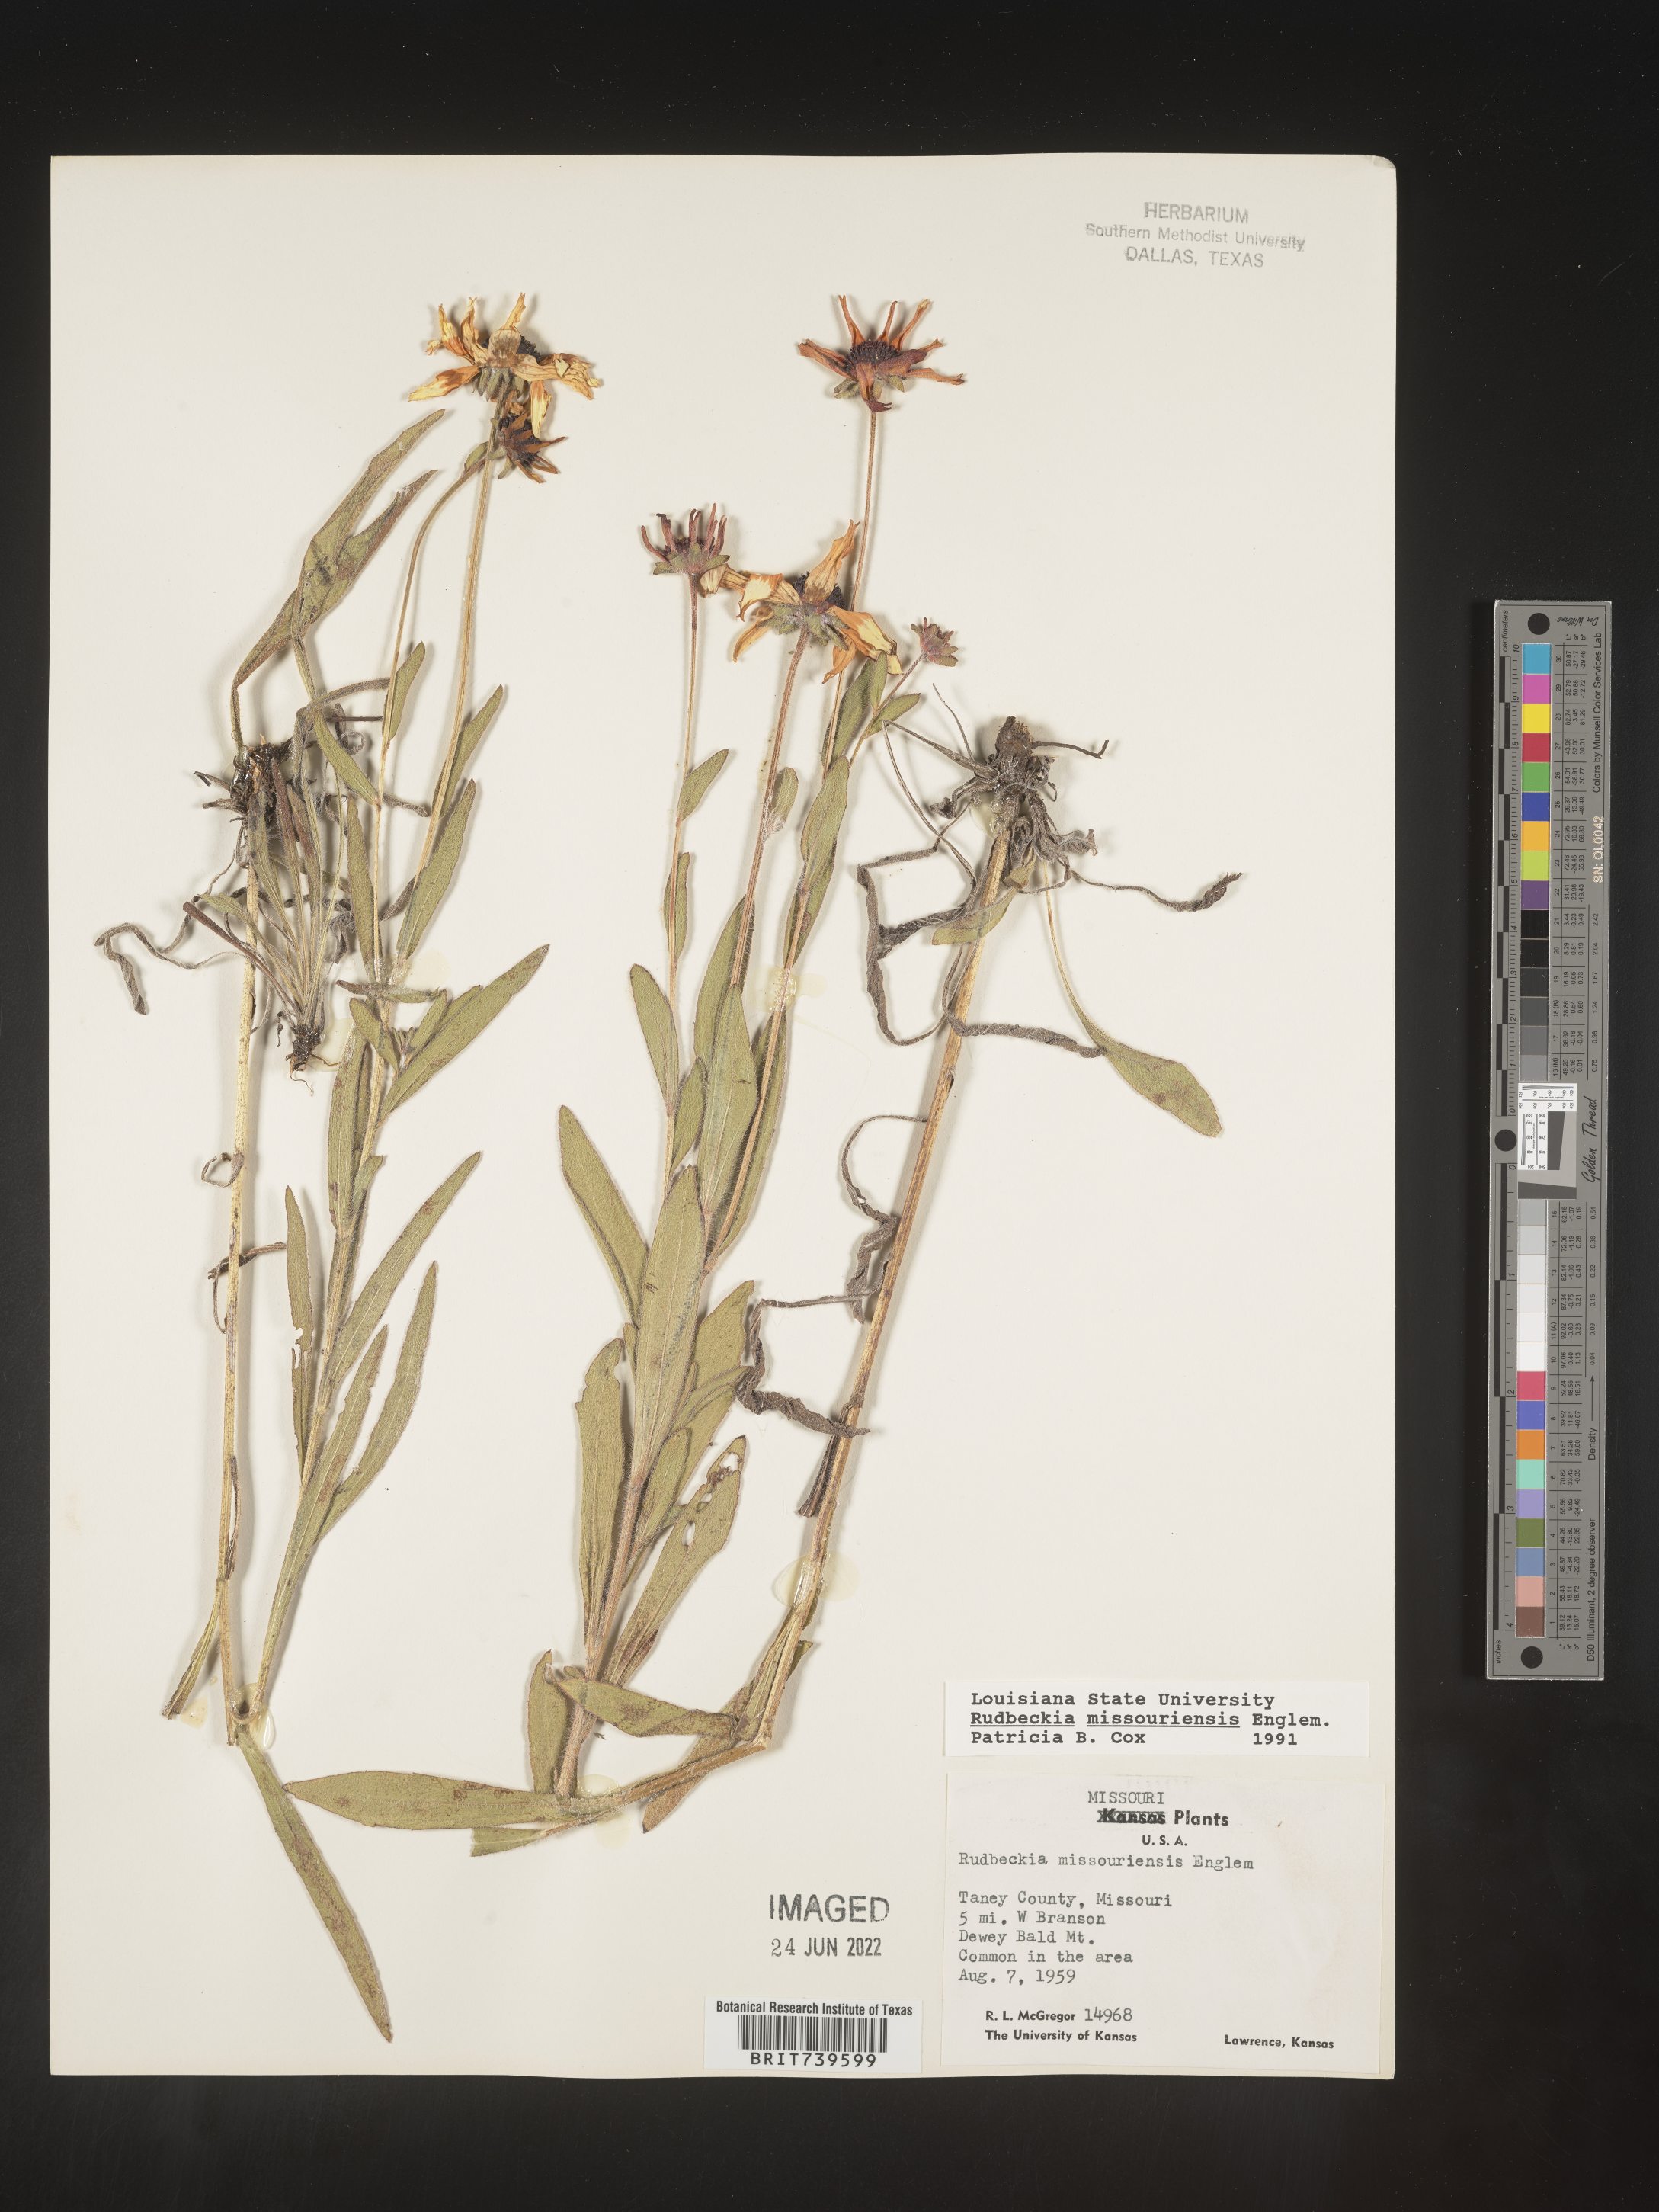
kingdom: Plantae
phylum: Tracheophyta
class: Magnoliopsida
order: Asterales
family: Asteraceae
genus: Rudbeckia
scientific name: Rudbeckia missouriensis
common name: Missouri coneflower
